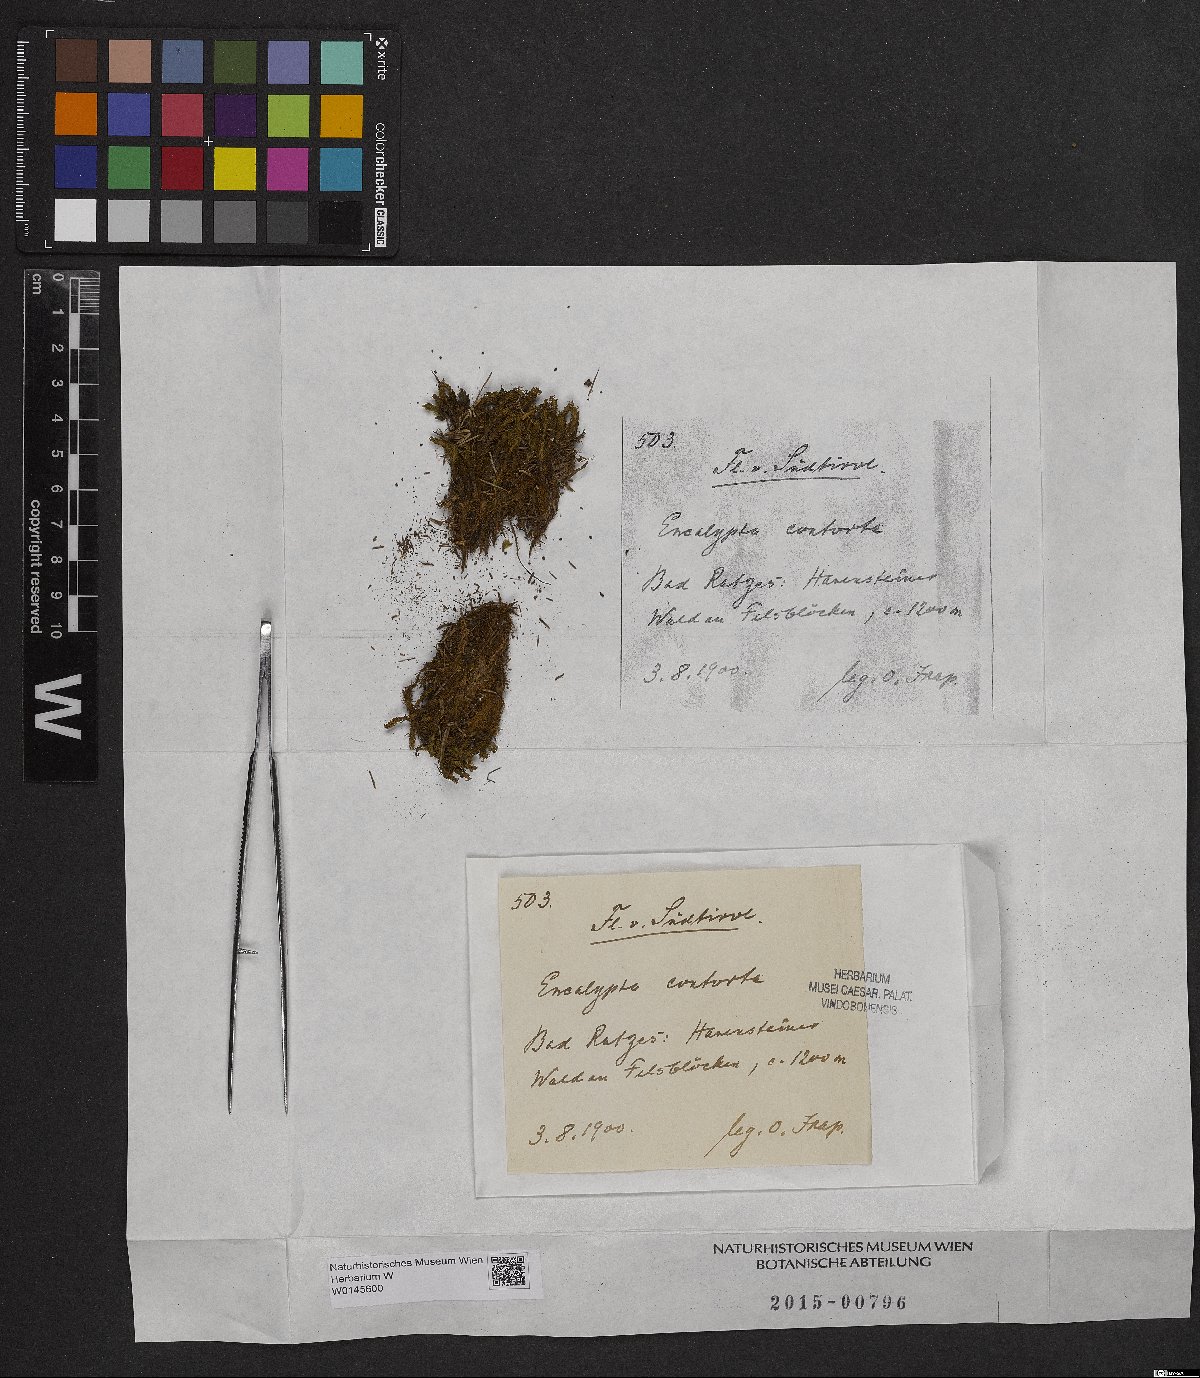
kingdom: Plantae
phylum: Bryophyta
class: Bryopsida
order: Encalyptales
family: Encalyptaceae
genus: Encalypta
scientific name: Encalypta streptocarpa
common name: Spiral extinguisher-moss
